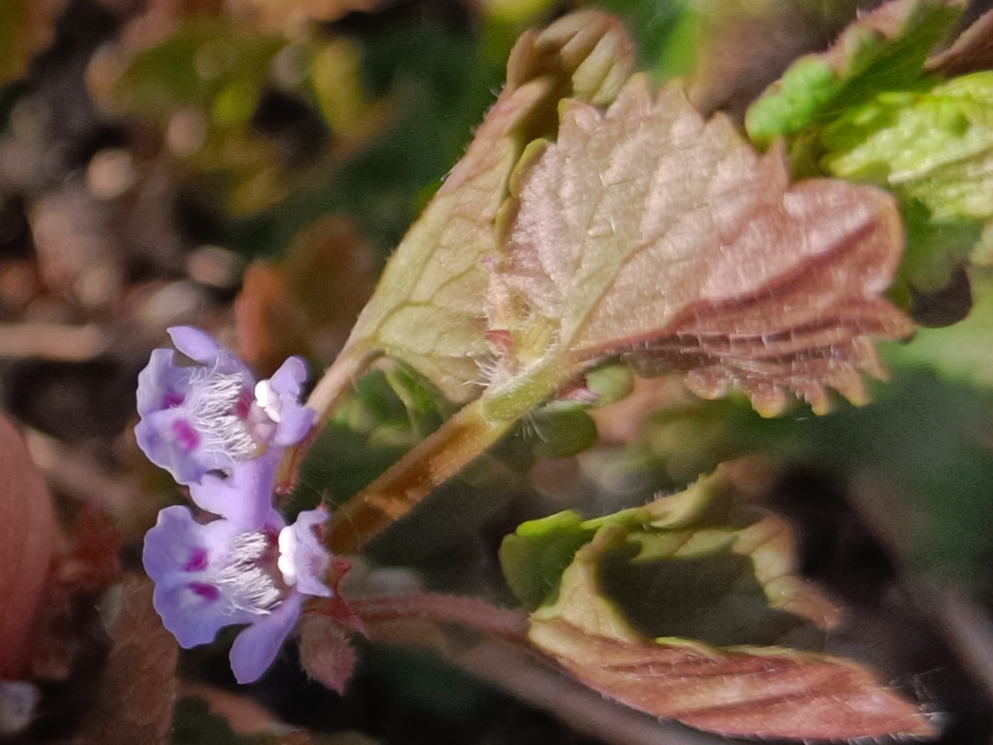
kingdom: Plantae
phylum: Tracheophyta
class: Magnoliopsida
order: Lamiales
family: Lamiaceae
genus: Glechoma
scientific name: Glechoma hederacea
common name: Korsknap
